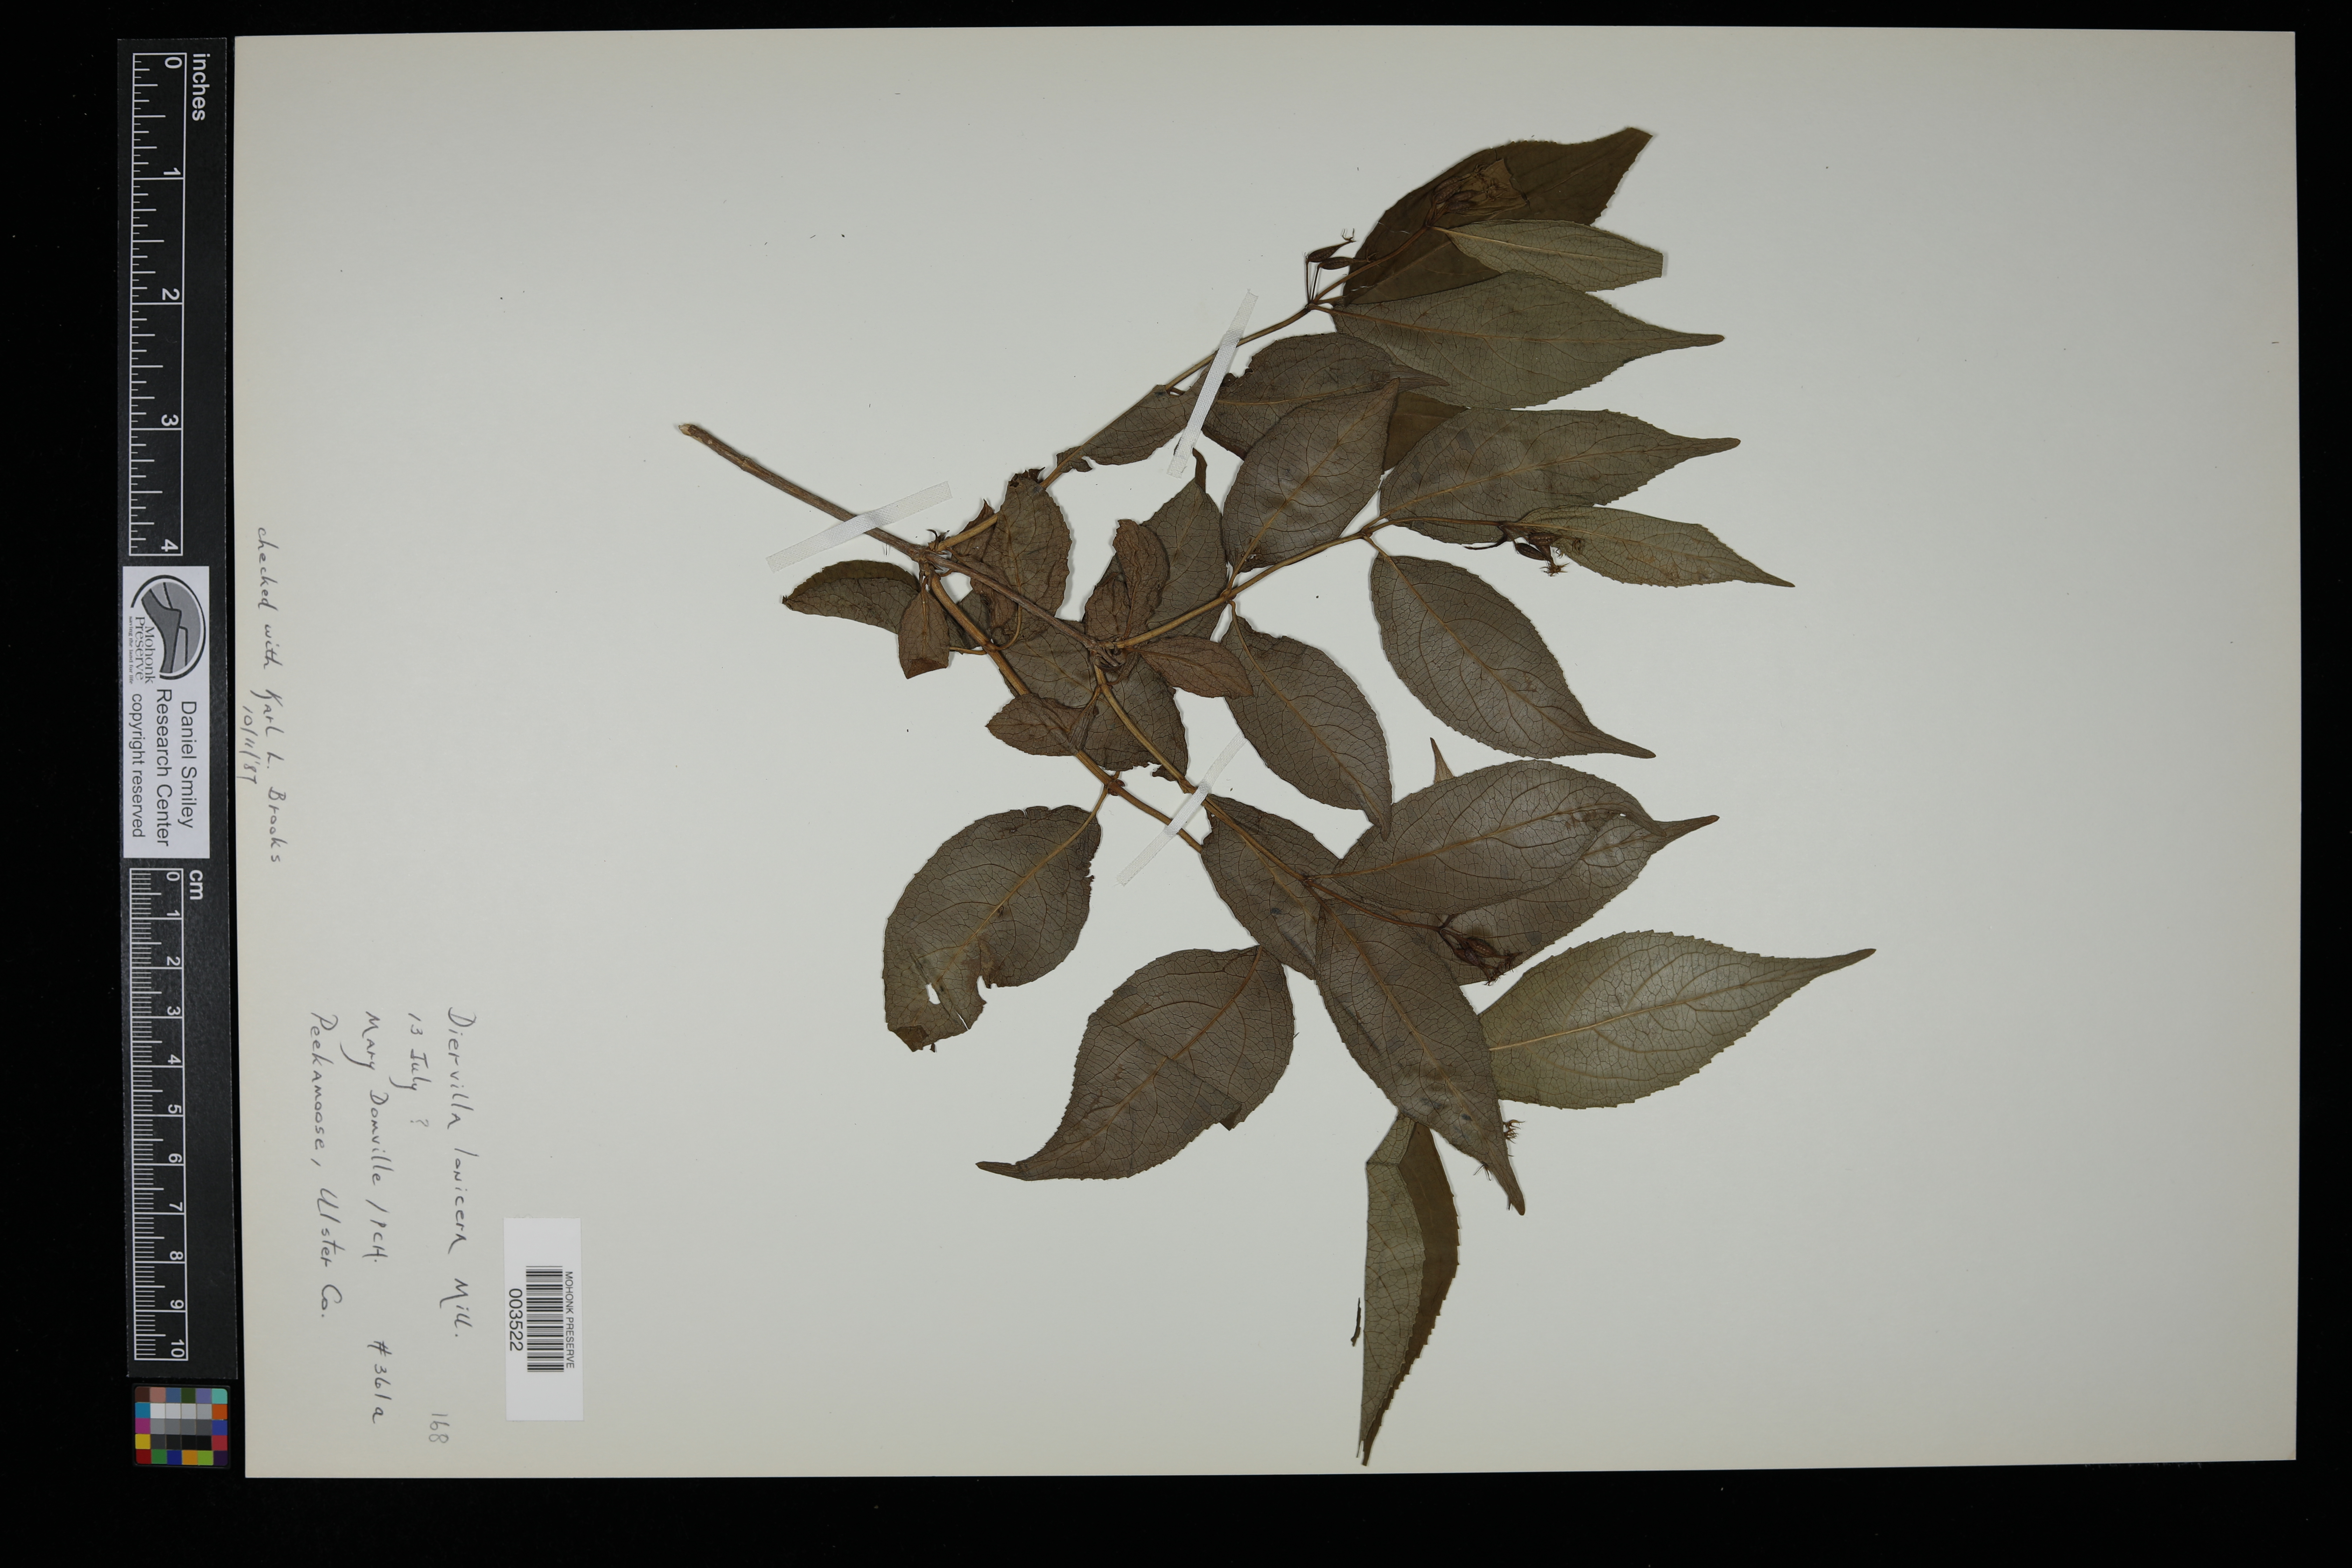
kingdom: Plantae
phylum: Tracheophyta
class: Magnoliopsida
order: Dipsacales
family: Caprifoliaceae
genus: Diervilla
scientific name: Diervilla lonicera
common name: Bush-honeysuckle
